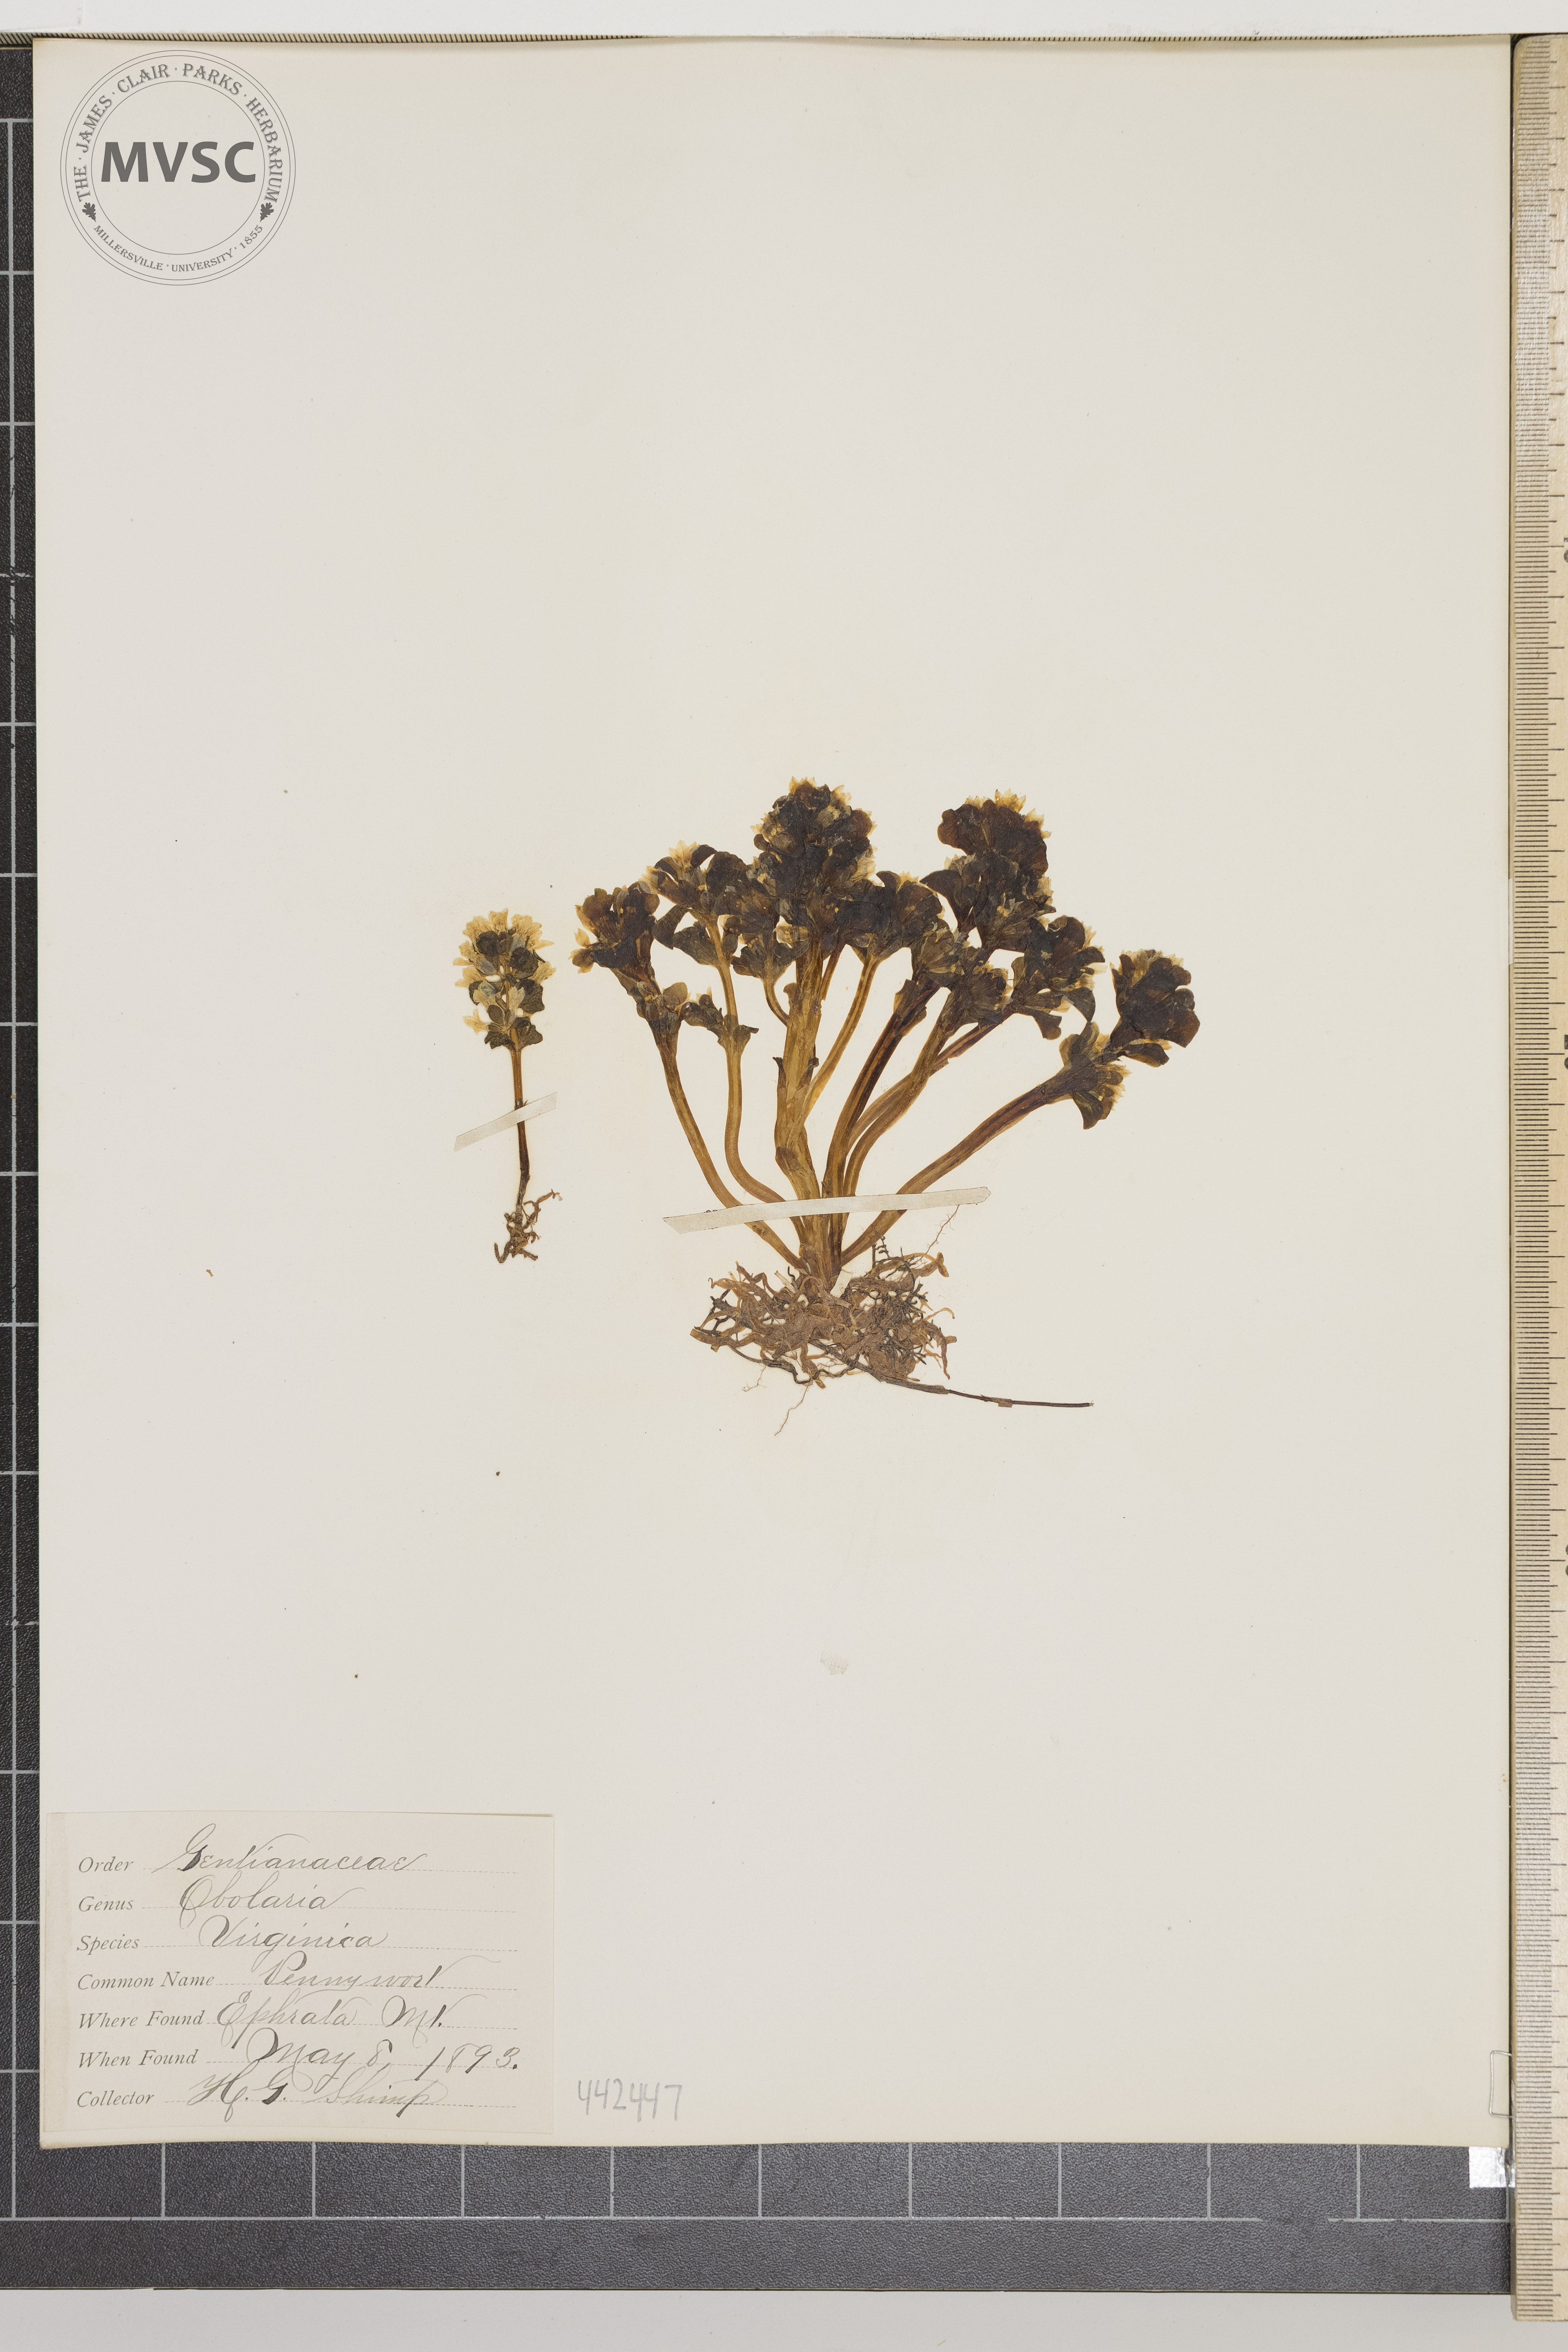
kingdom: Plantae
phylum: Tracheophyta
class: Magnoliopsida
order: Gentianales
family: Gentianaceae
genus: Obolaria
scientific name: Obolaria virginica
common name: Pennywort
